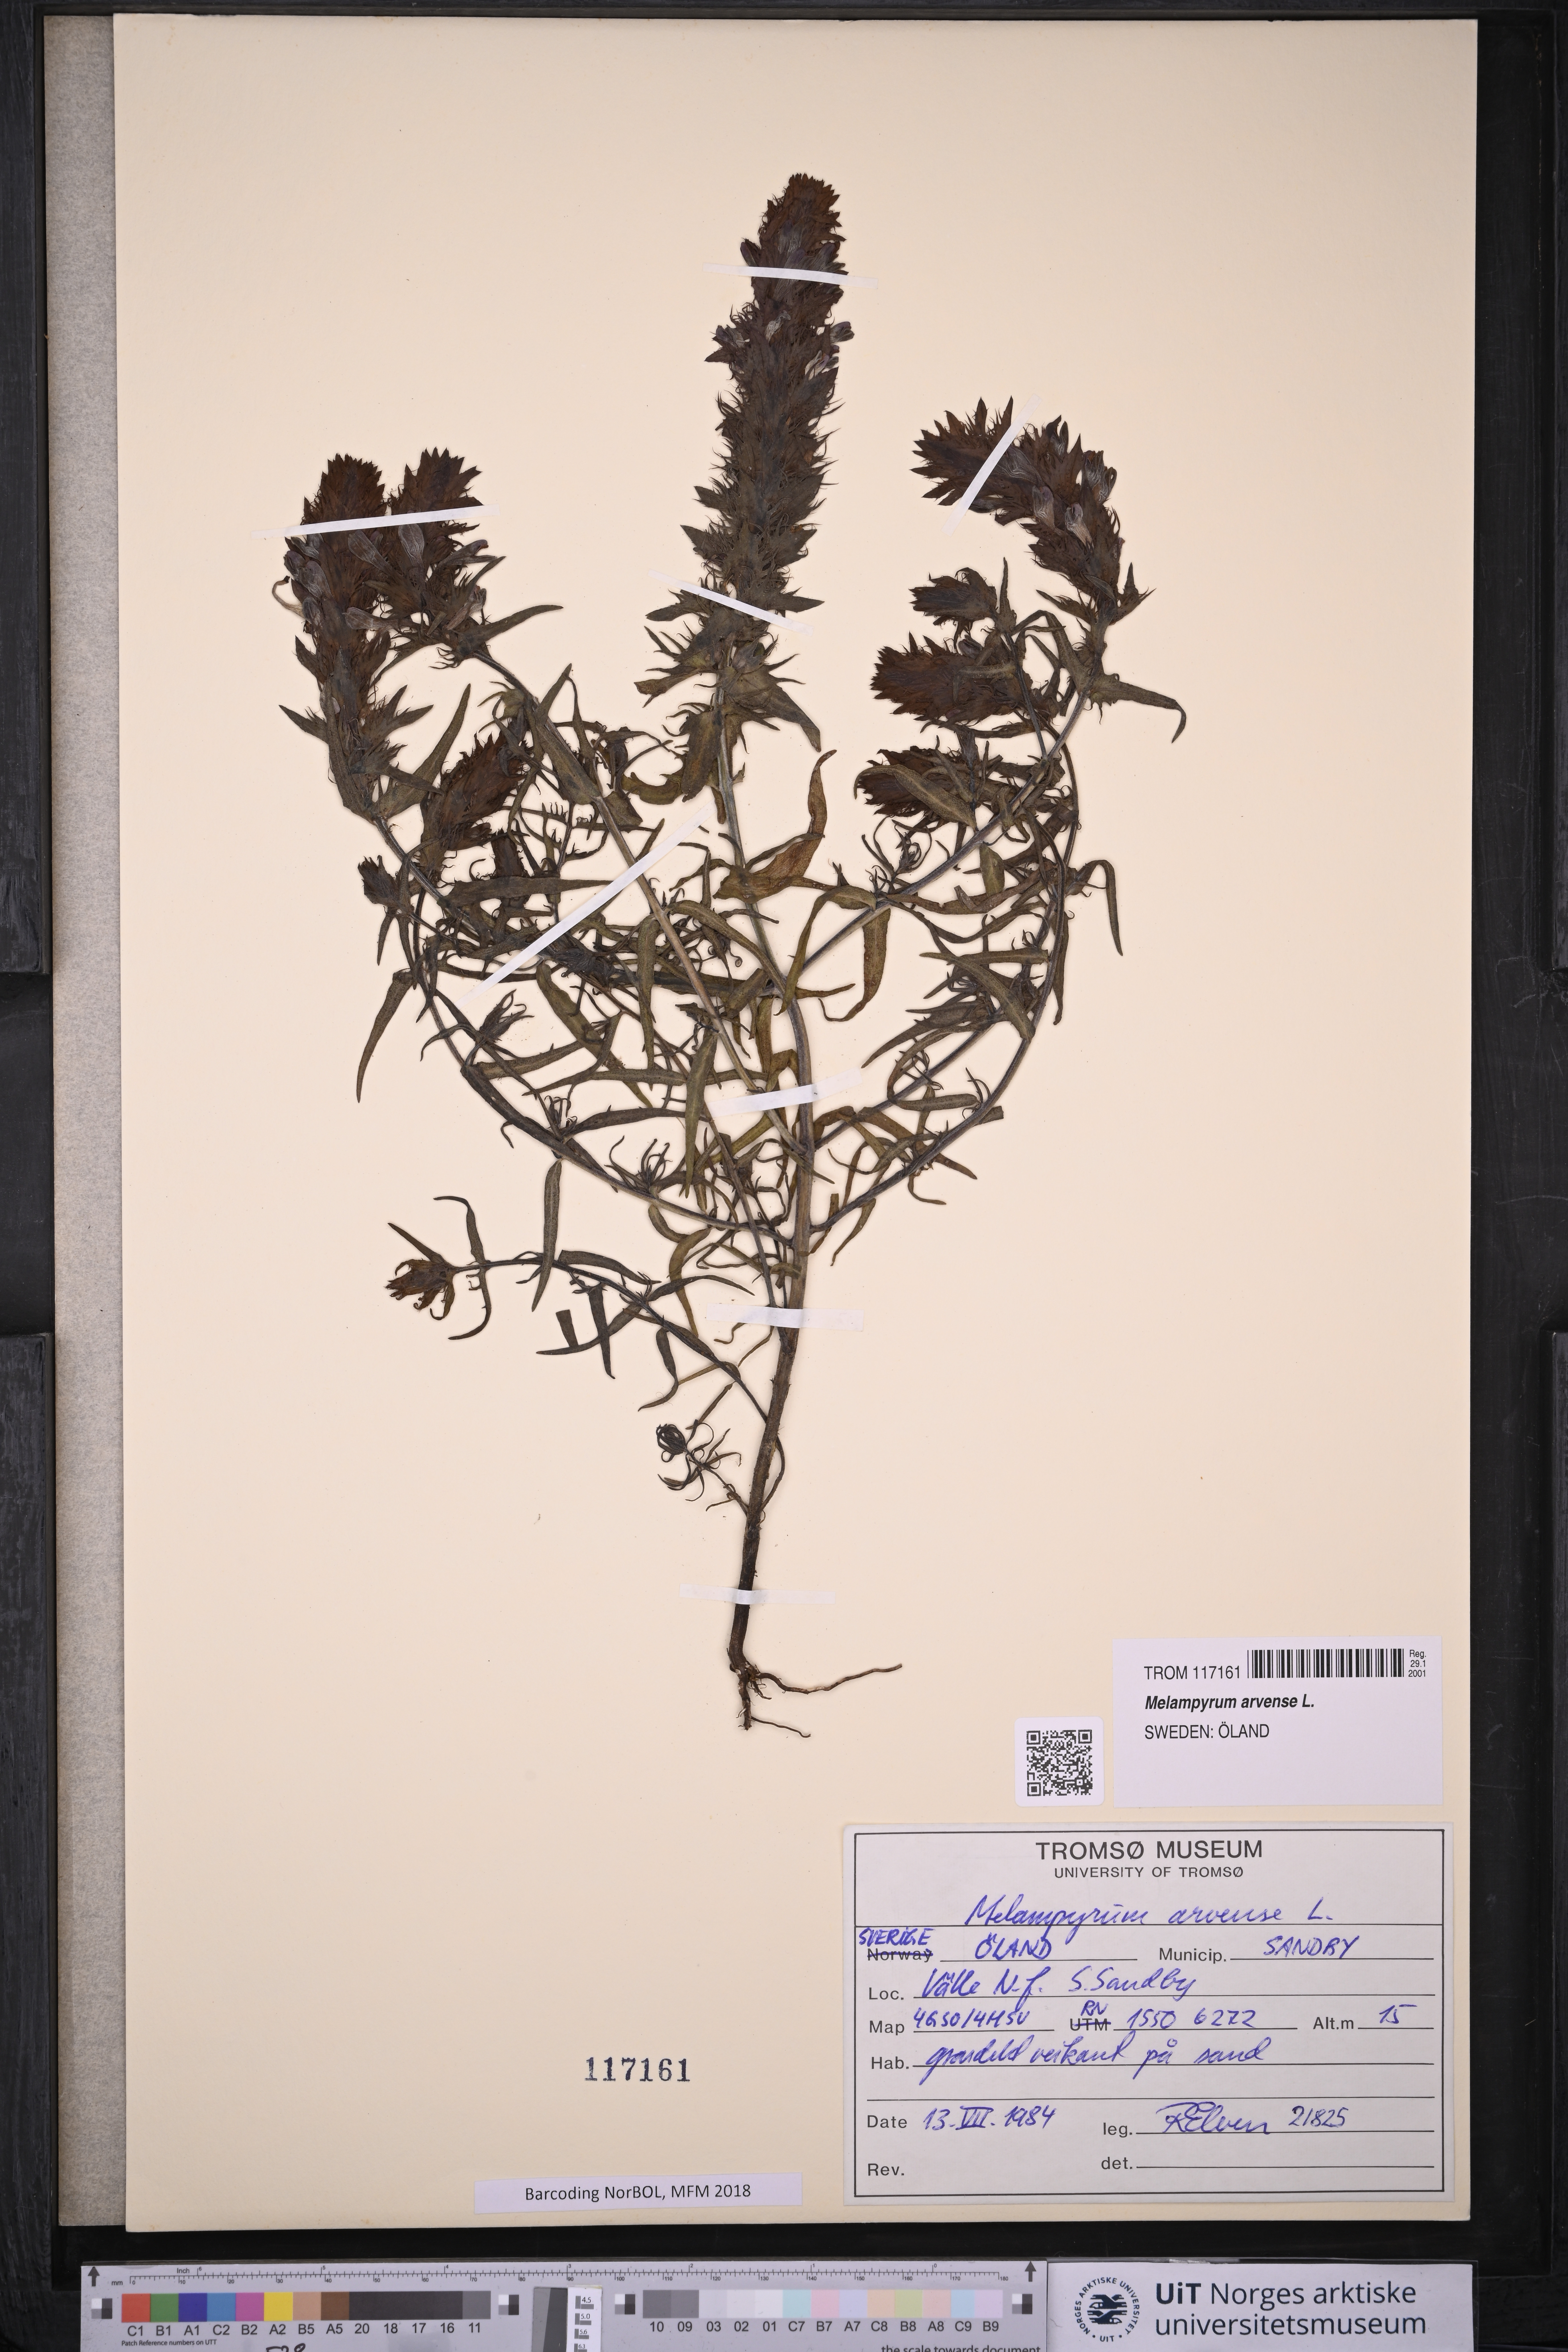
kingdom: Plantae
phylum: Tracheophyta
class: Magnoliopsida
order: Lamiales
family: Orobanchaceae
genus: Melampyrum
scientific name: Melampyrum arvense
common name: Field cow-wheat
